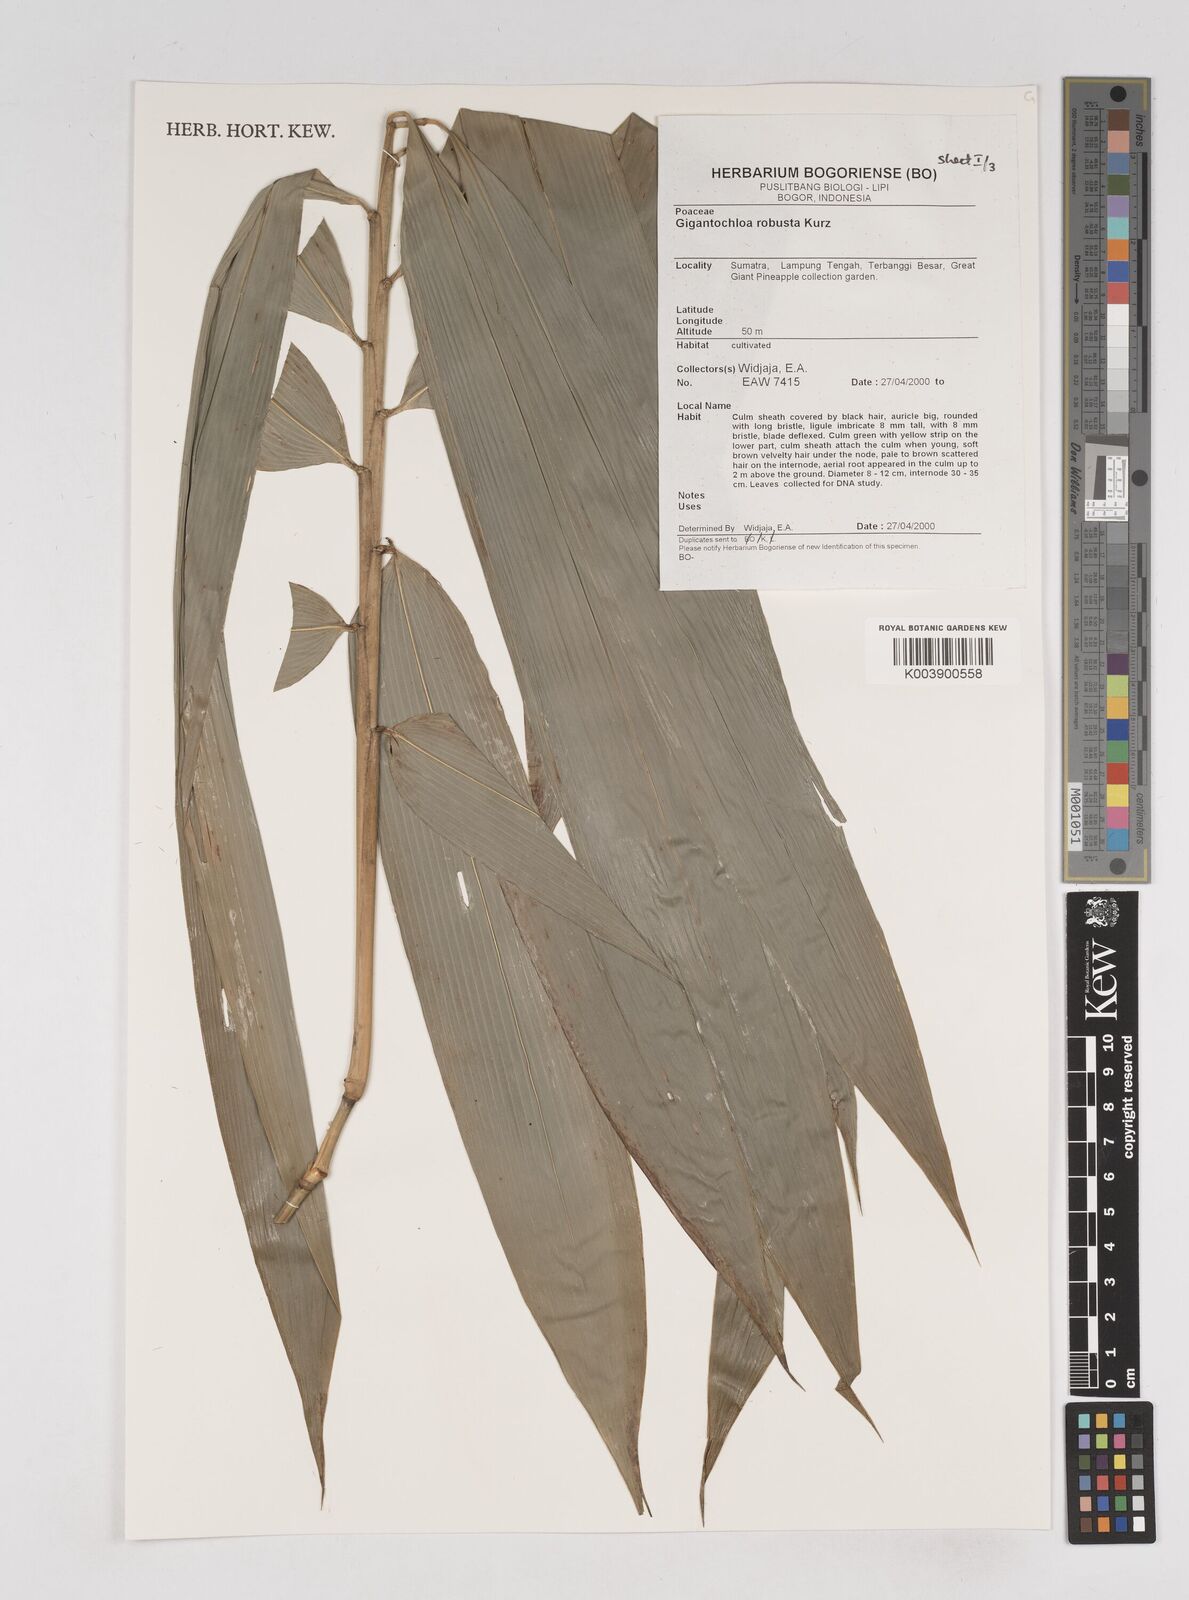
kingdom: Plantae
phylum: Tracheophyta
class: Liliopsida
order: Poales
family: Poaceae
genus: Gigantochloa
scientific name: Gigantochloa robusta
